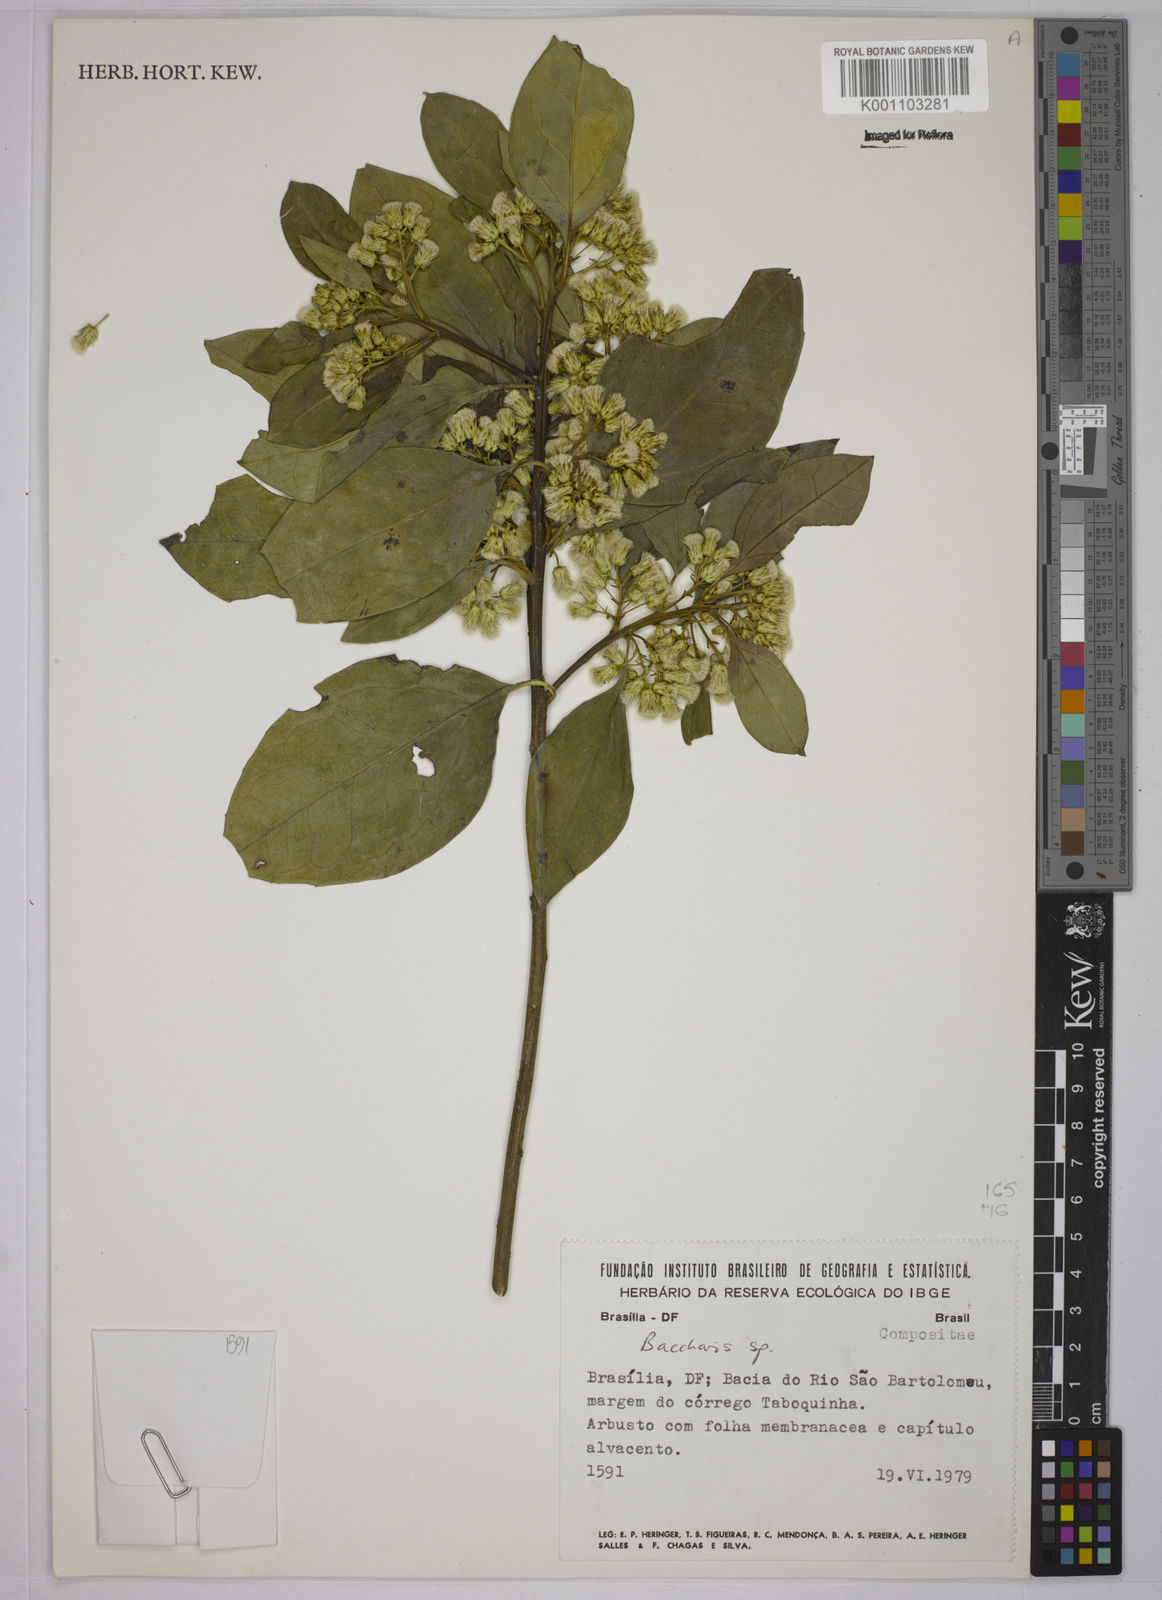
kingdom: Plantae
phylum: Tracheophyta
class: Magnoliopsida
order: Asterales
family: Asteraceae
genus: Baccharis
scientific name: Baccharis
